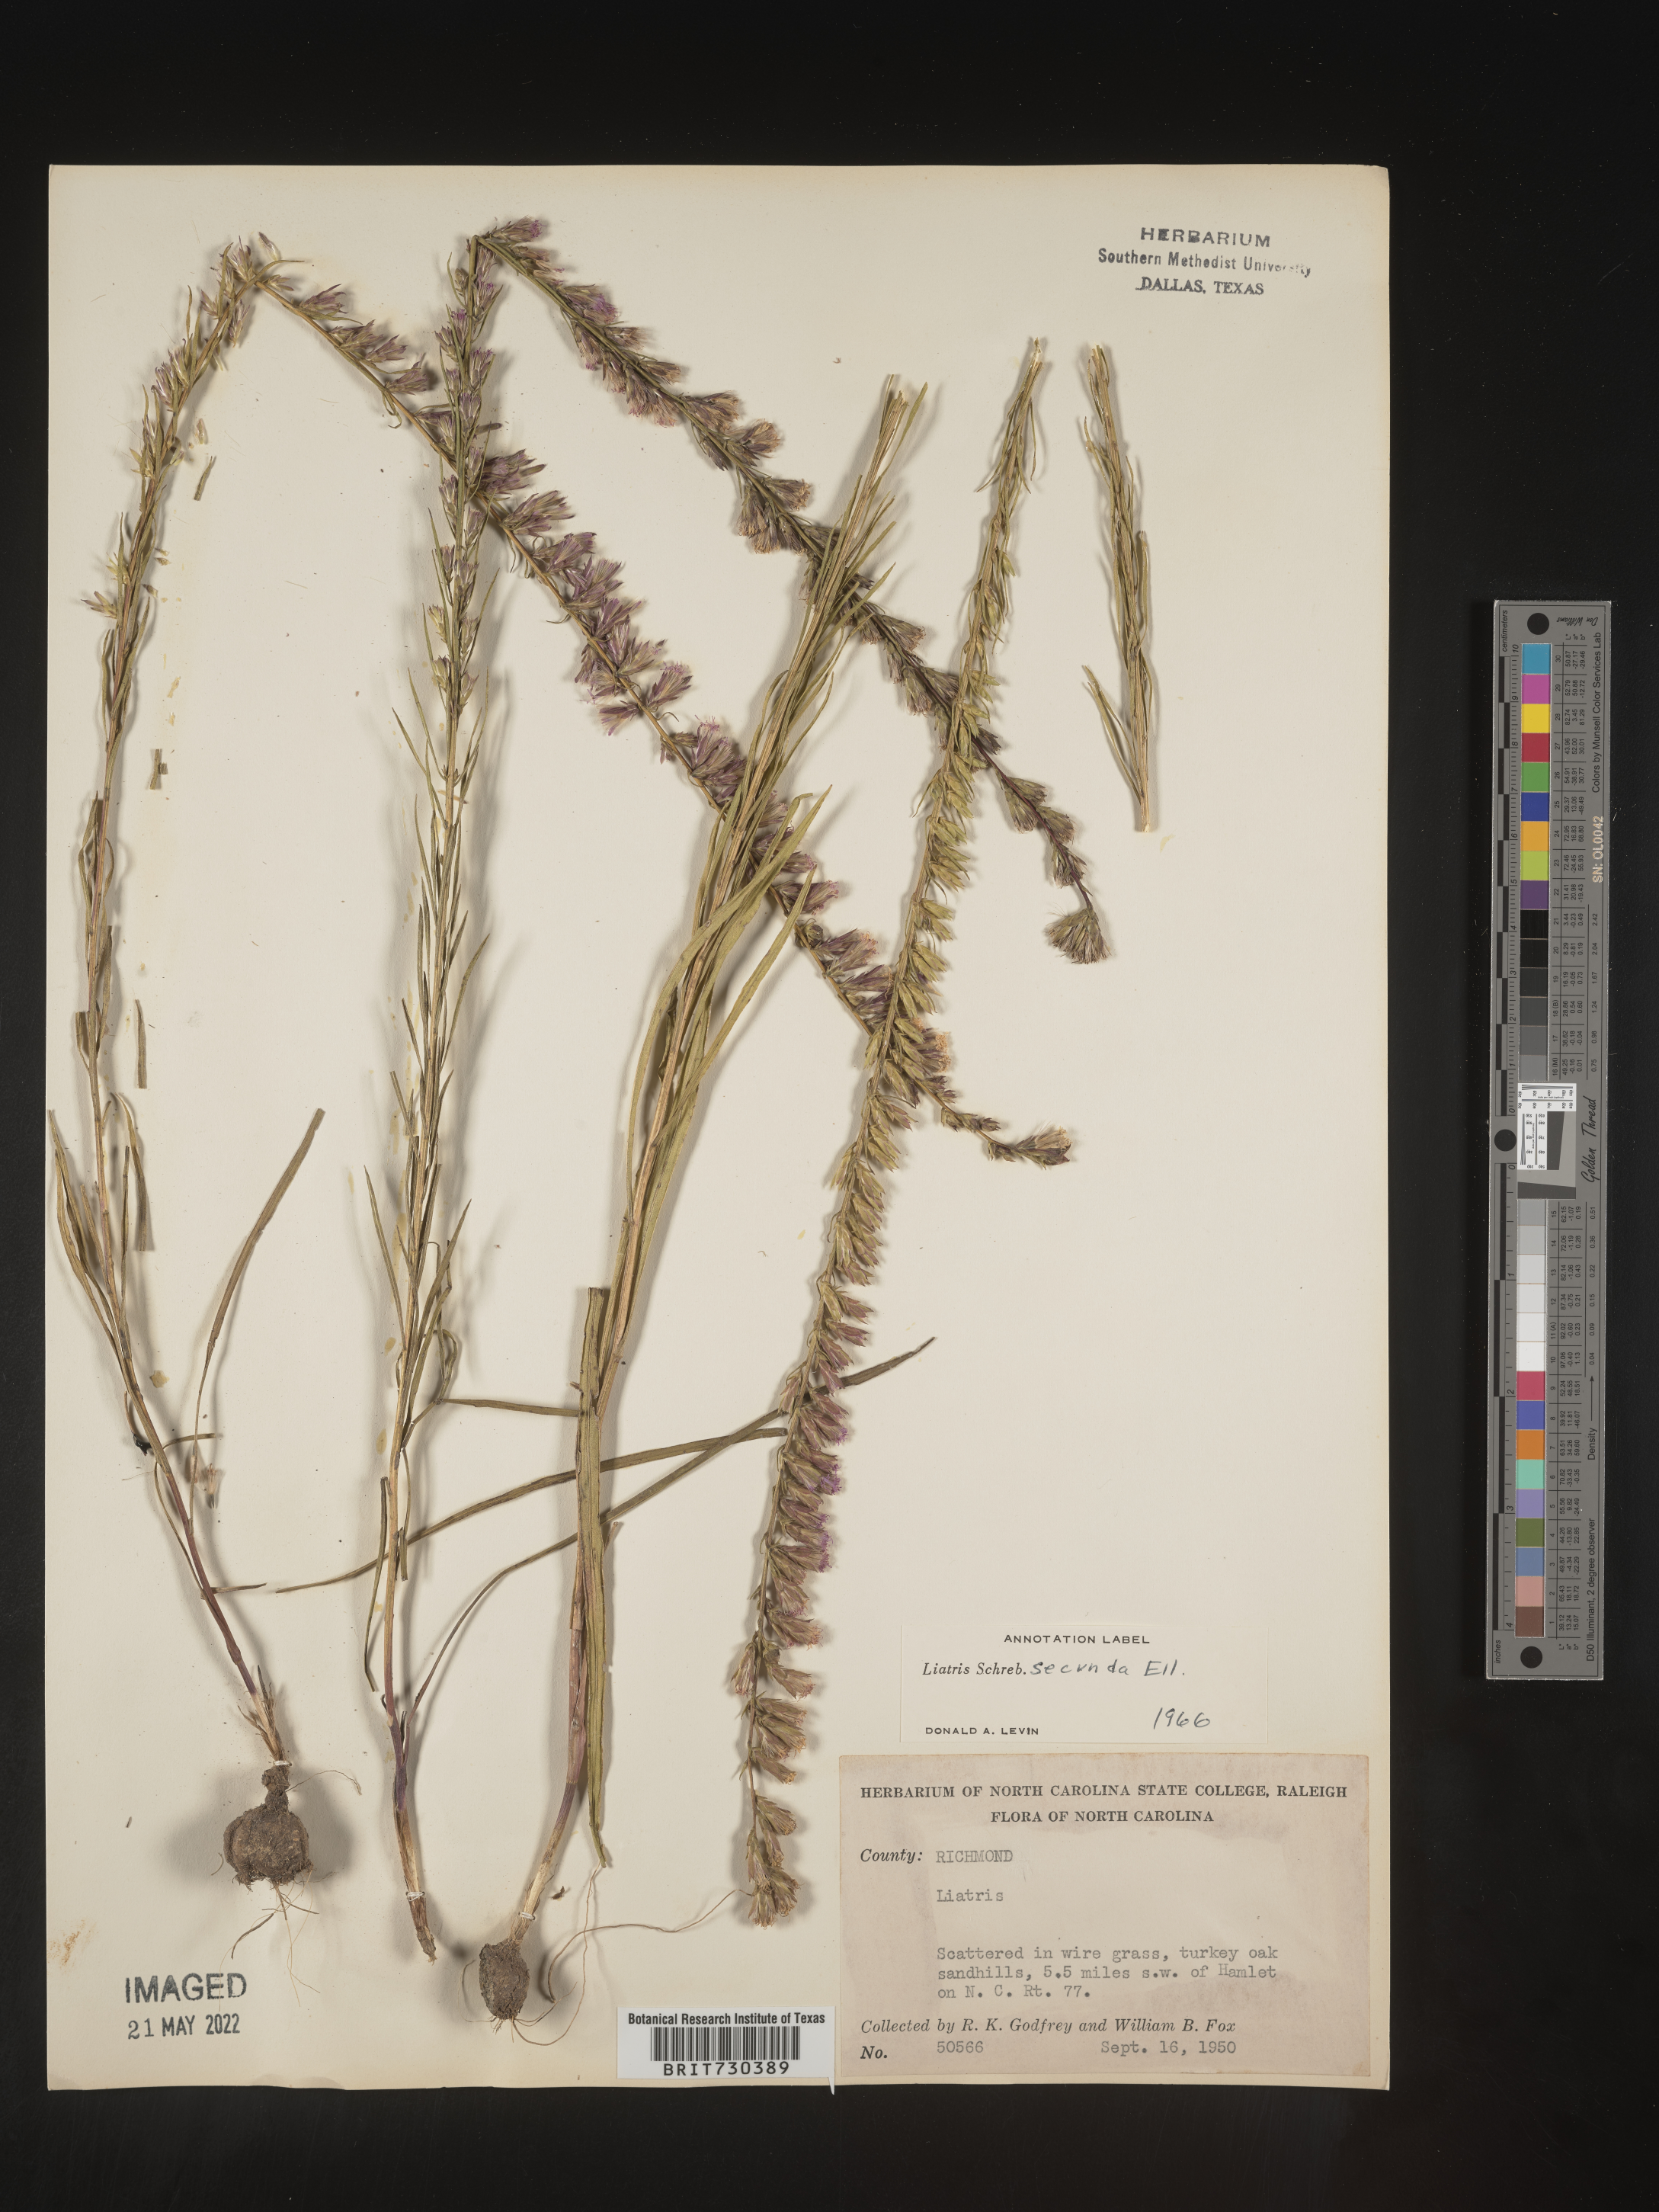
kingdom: Plantae
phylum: Tracheophyta
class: Magnoliopsida
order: Asterales
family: Asteraceae
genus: Liatris
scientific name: Liatris cokeri
